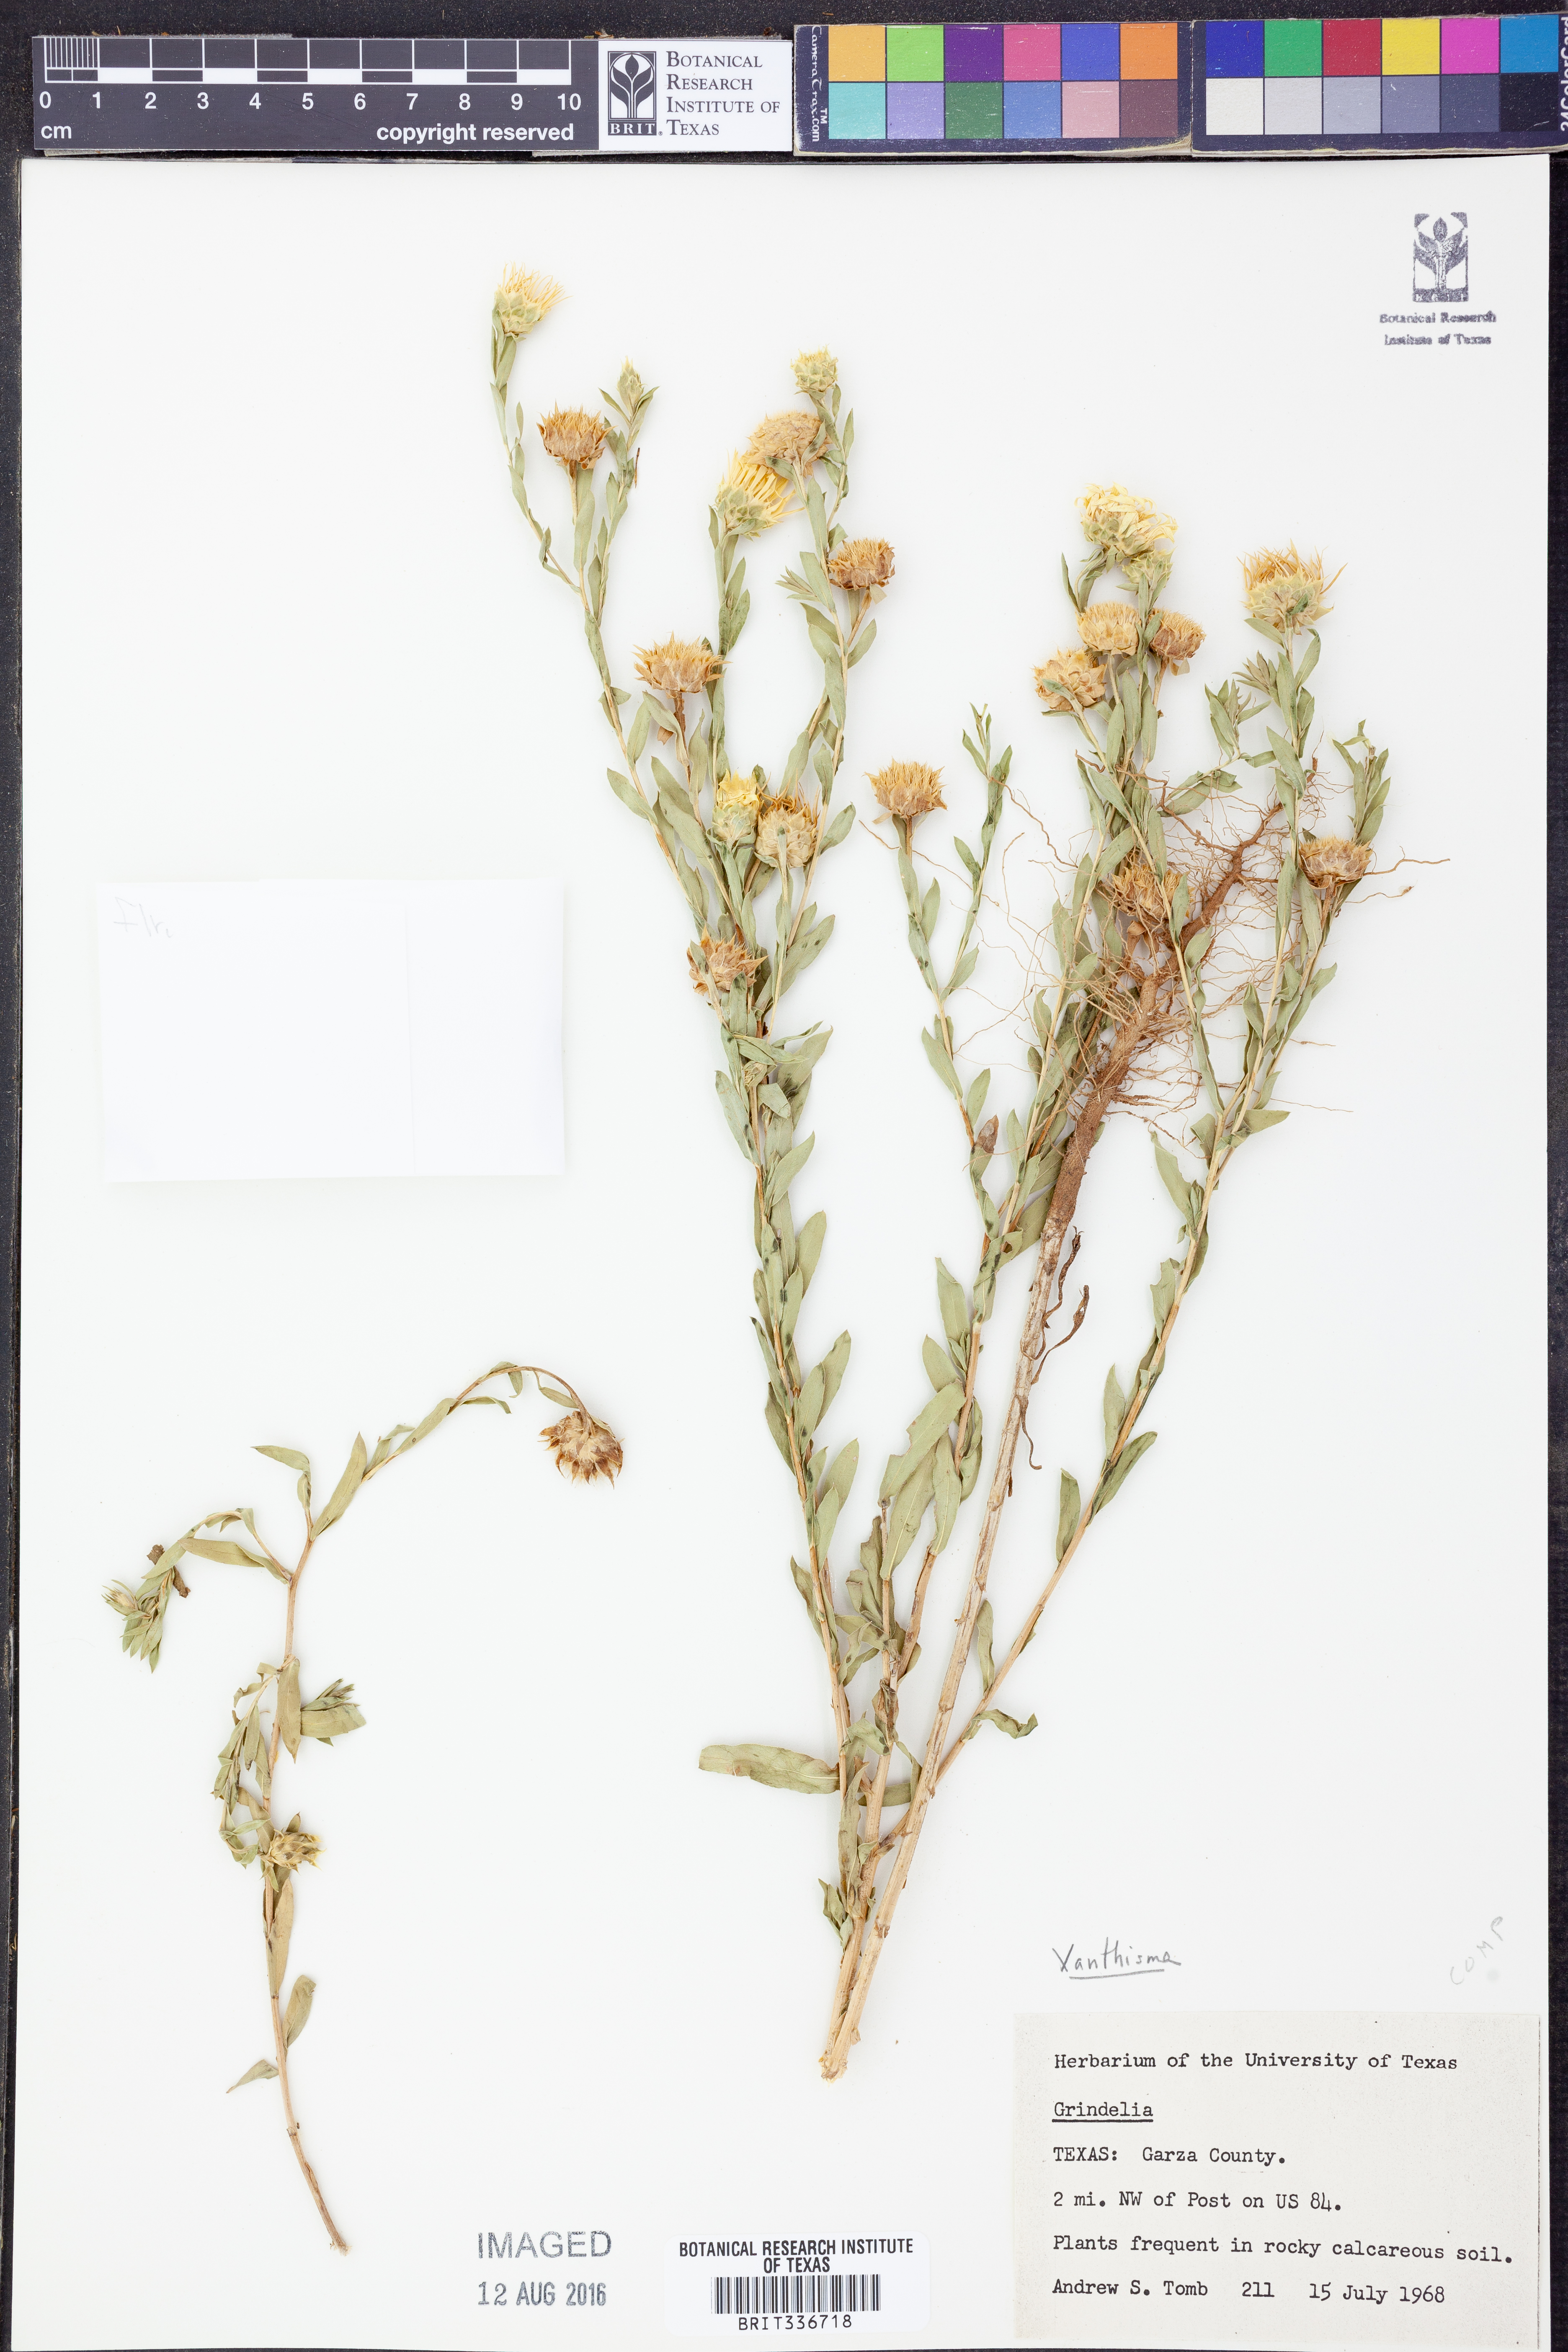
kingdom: Plantae
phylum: Tracheophyta
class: Magnoliopsida
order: Asterales
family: Asteraceae
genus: Xanthisma
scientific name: Xanthisma
